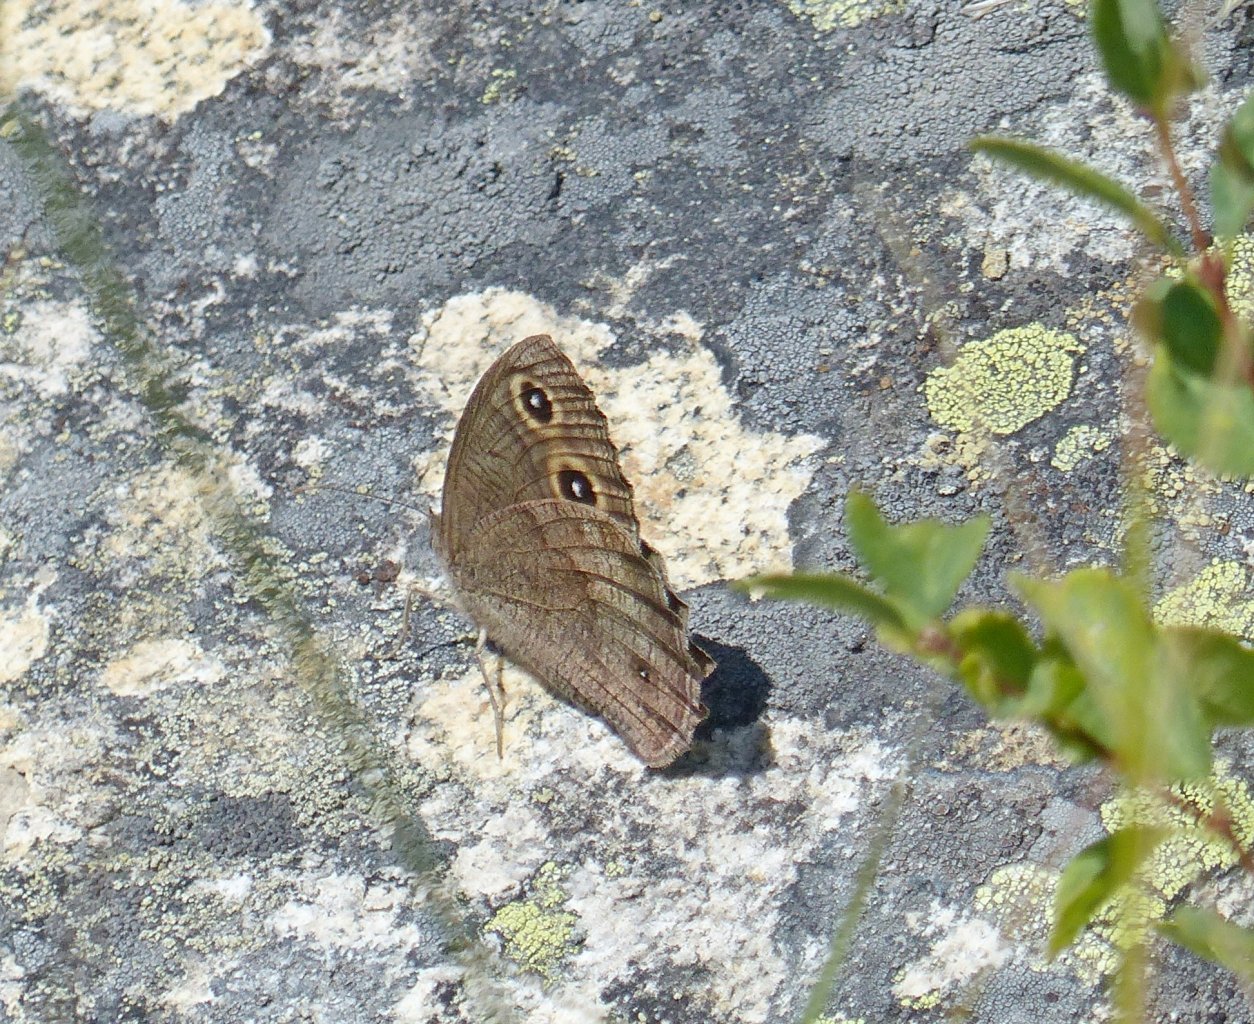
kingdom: Animalia
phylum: Arthropoda
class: Insecta
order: Lepidoptera
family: Nymphalidae
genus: Cercyonis
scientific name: Cercyonis pegala
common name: Common Wood-Nymph
